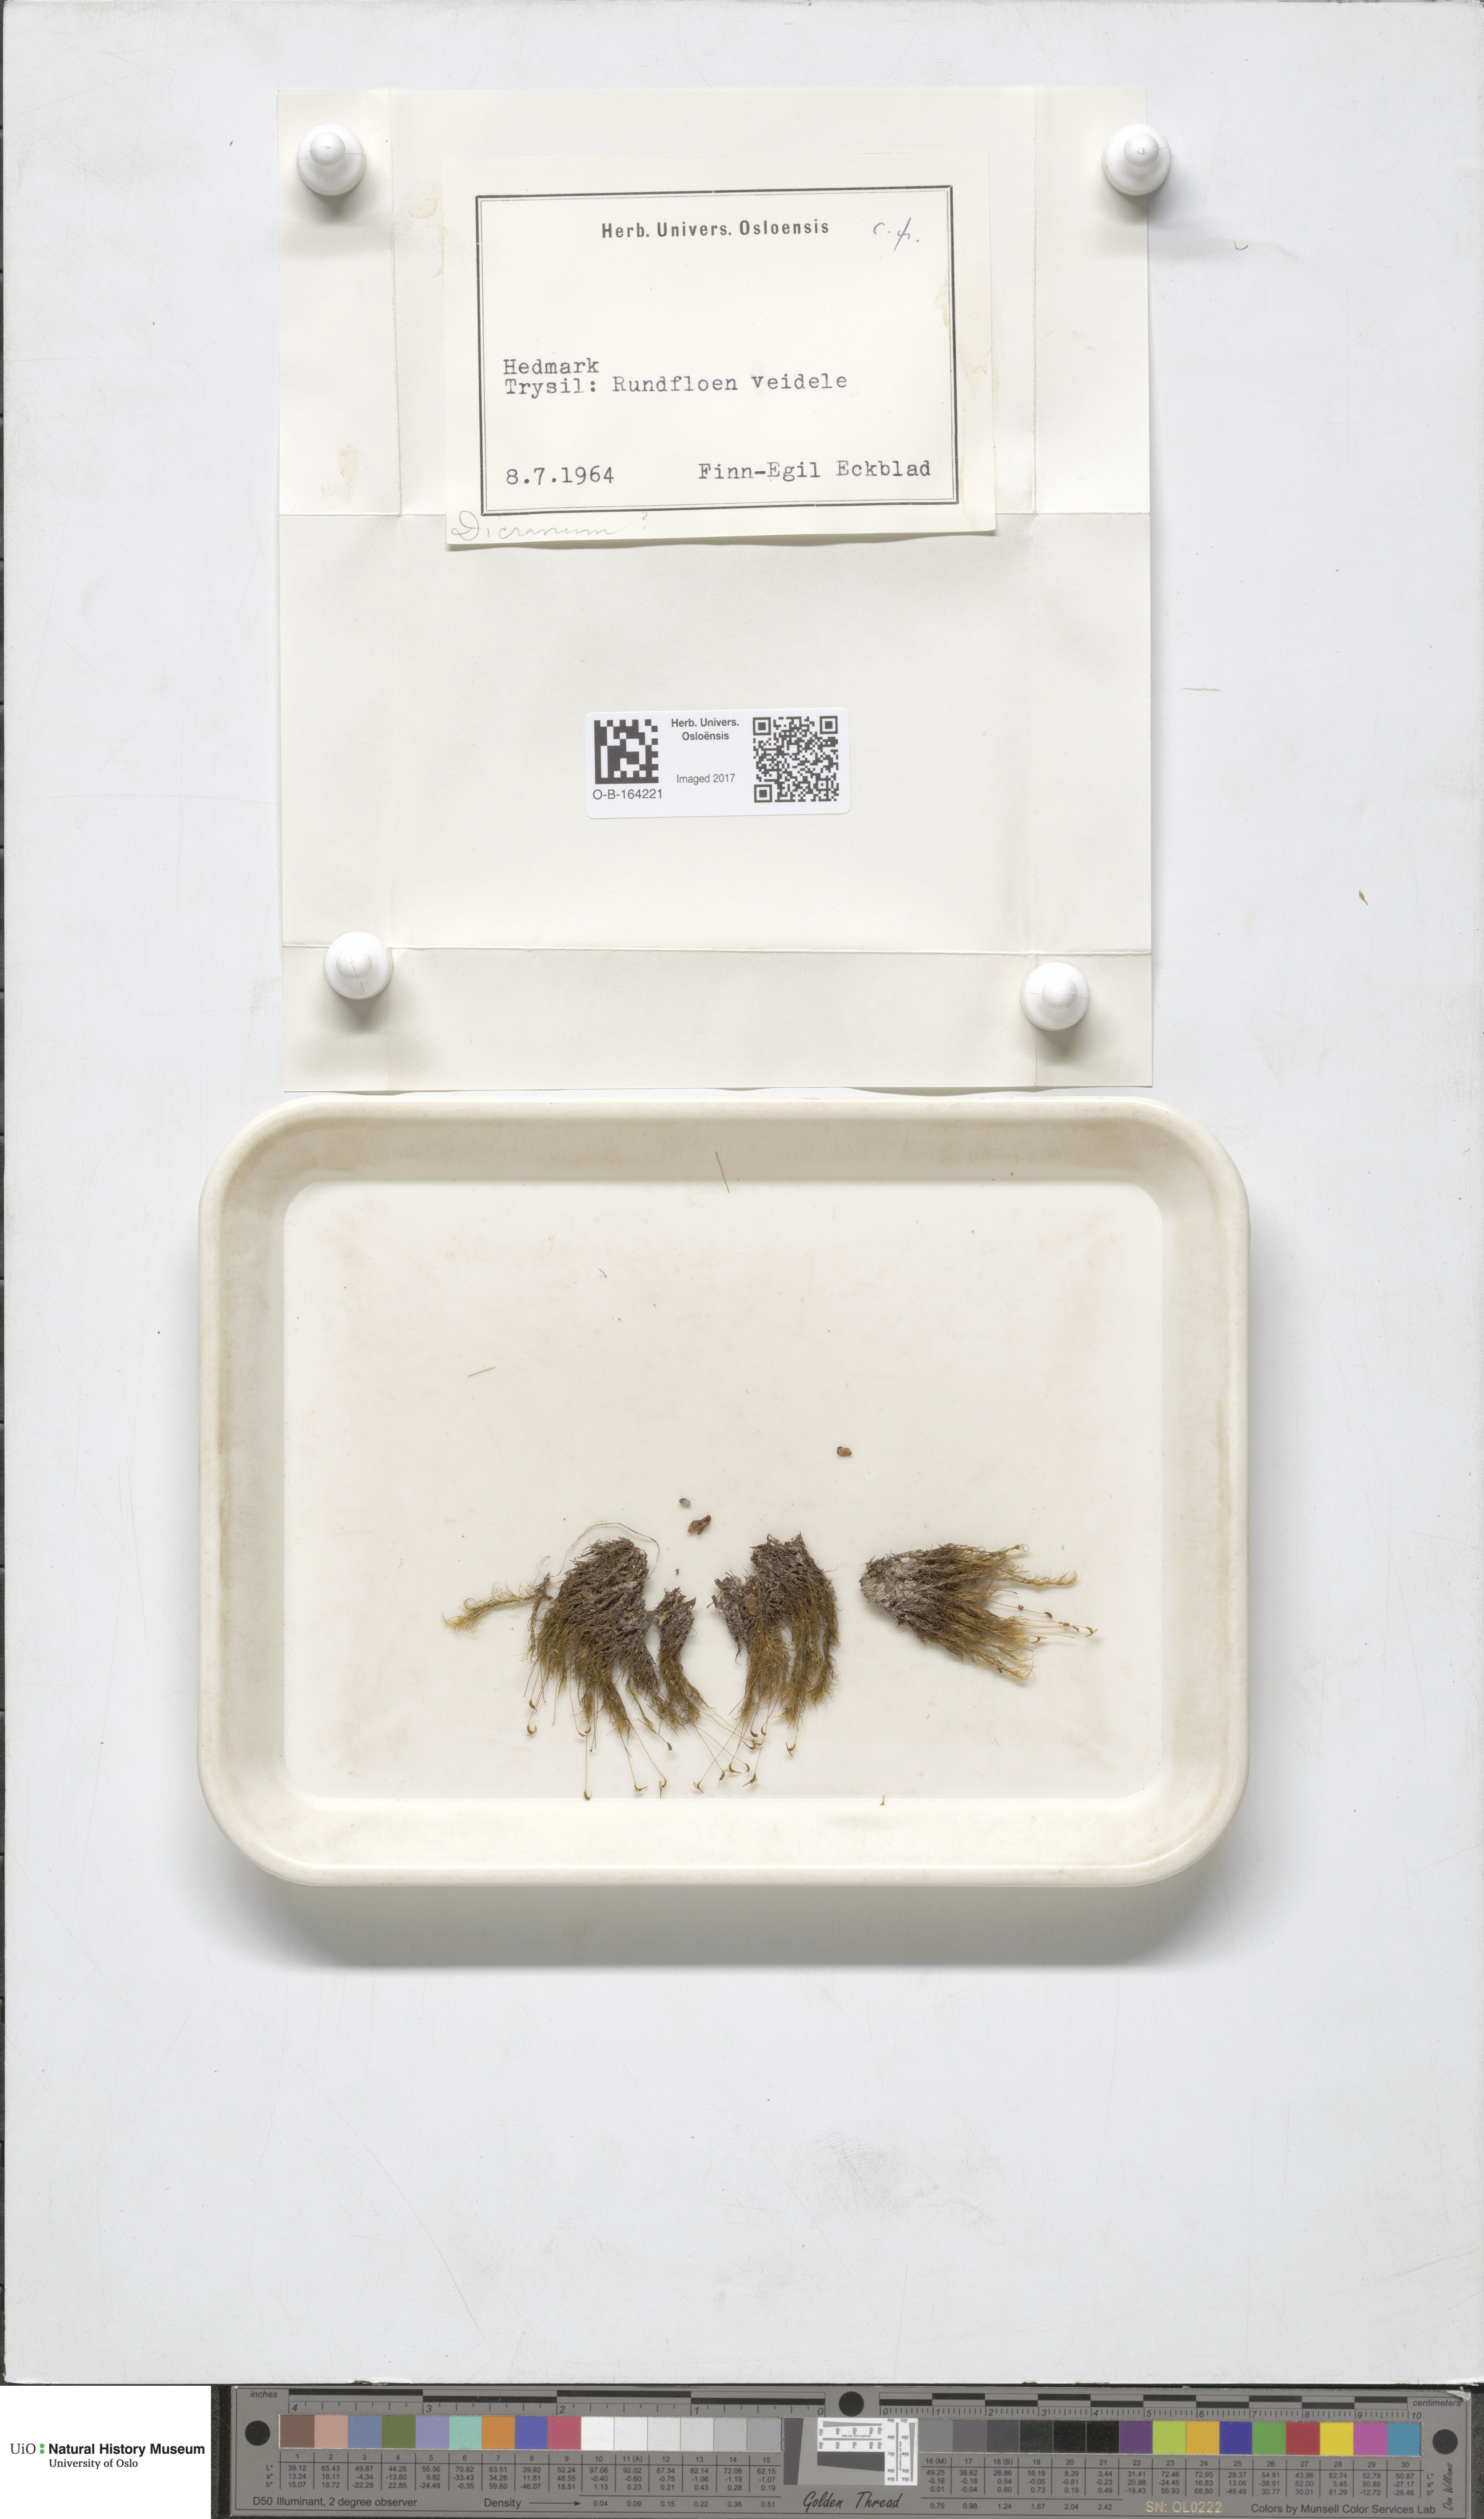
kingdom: Plantae
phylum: Bryophyta
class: Bryopsida
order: Dicranales
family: Dicranaceae
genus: Dicranum
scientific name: Dicranum
